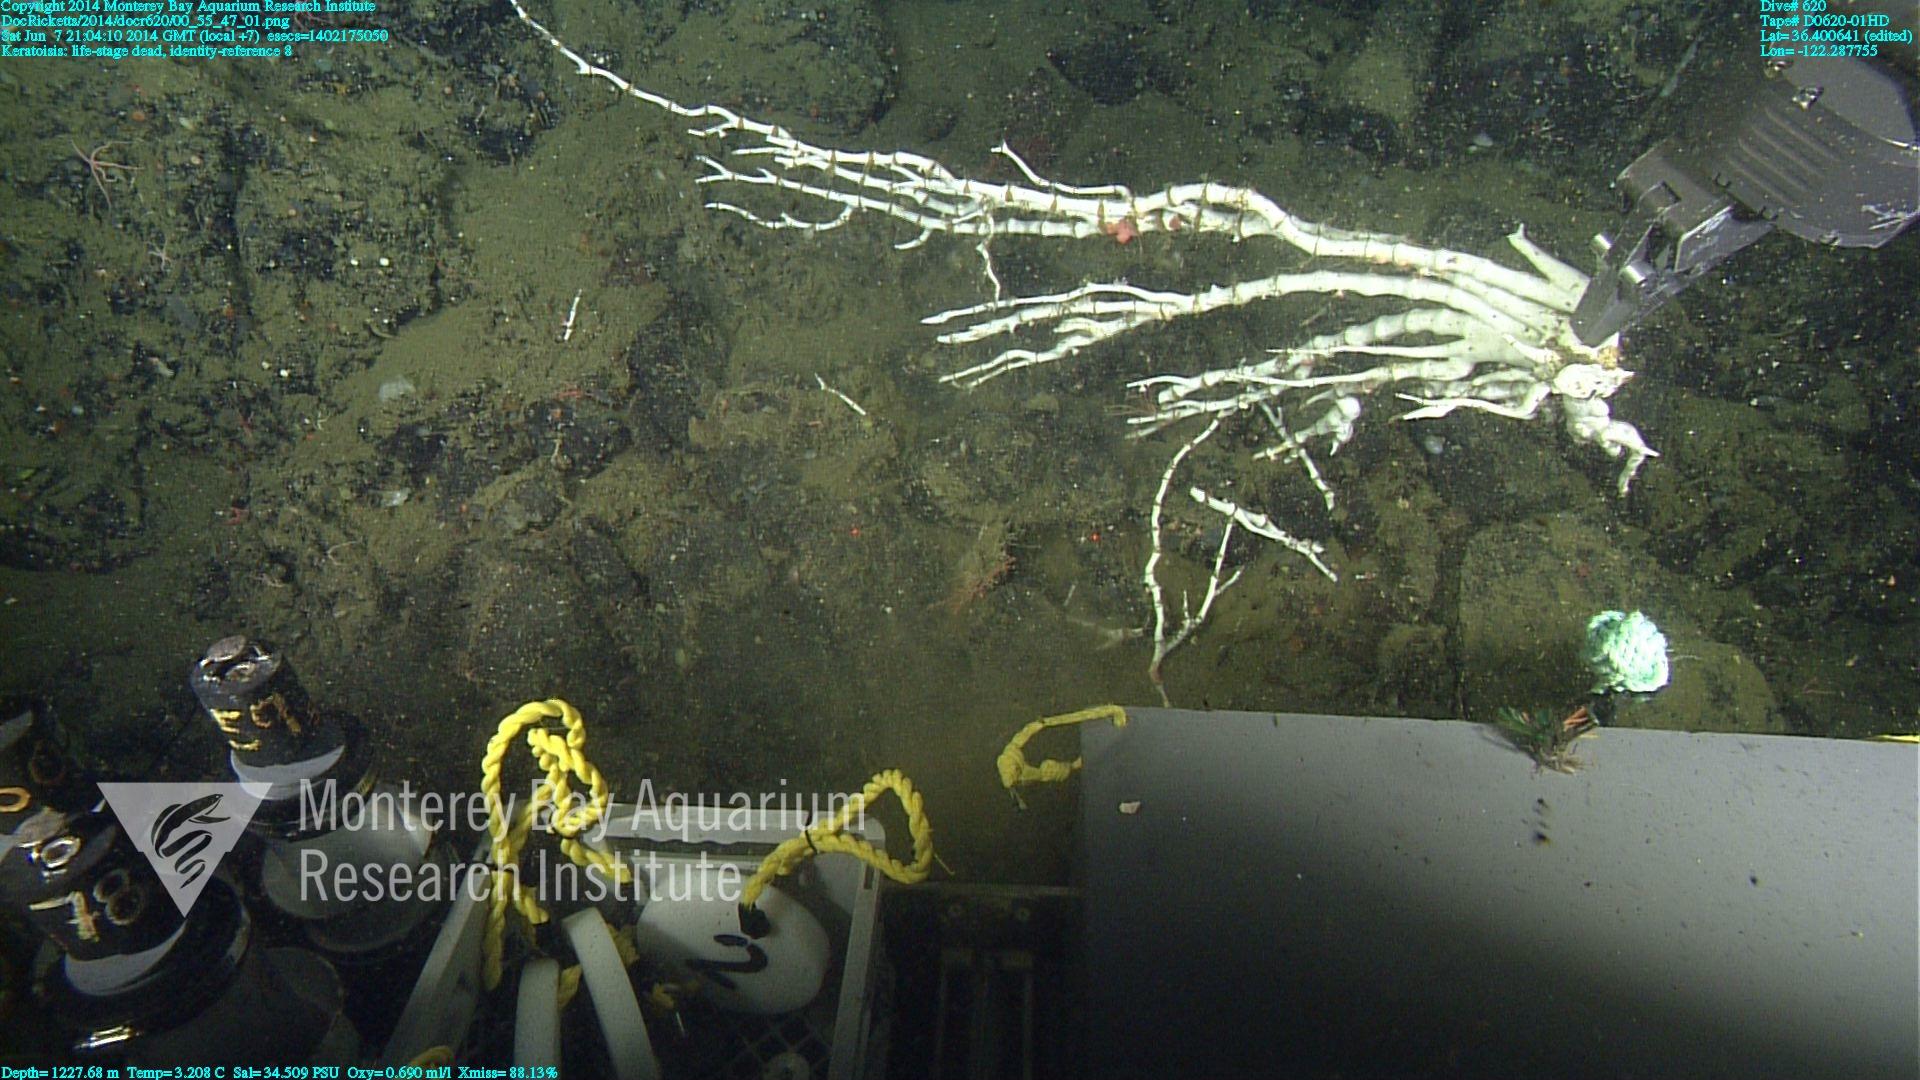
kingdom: Animalia
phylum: Cnidaria
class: Anthozoa
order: Scleralcyonacea
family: Keratoisididae
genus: Keratoisis
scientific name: Keratoisis
